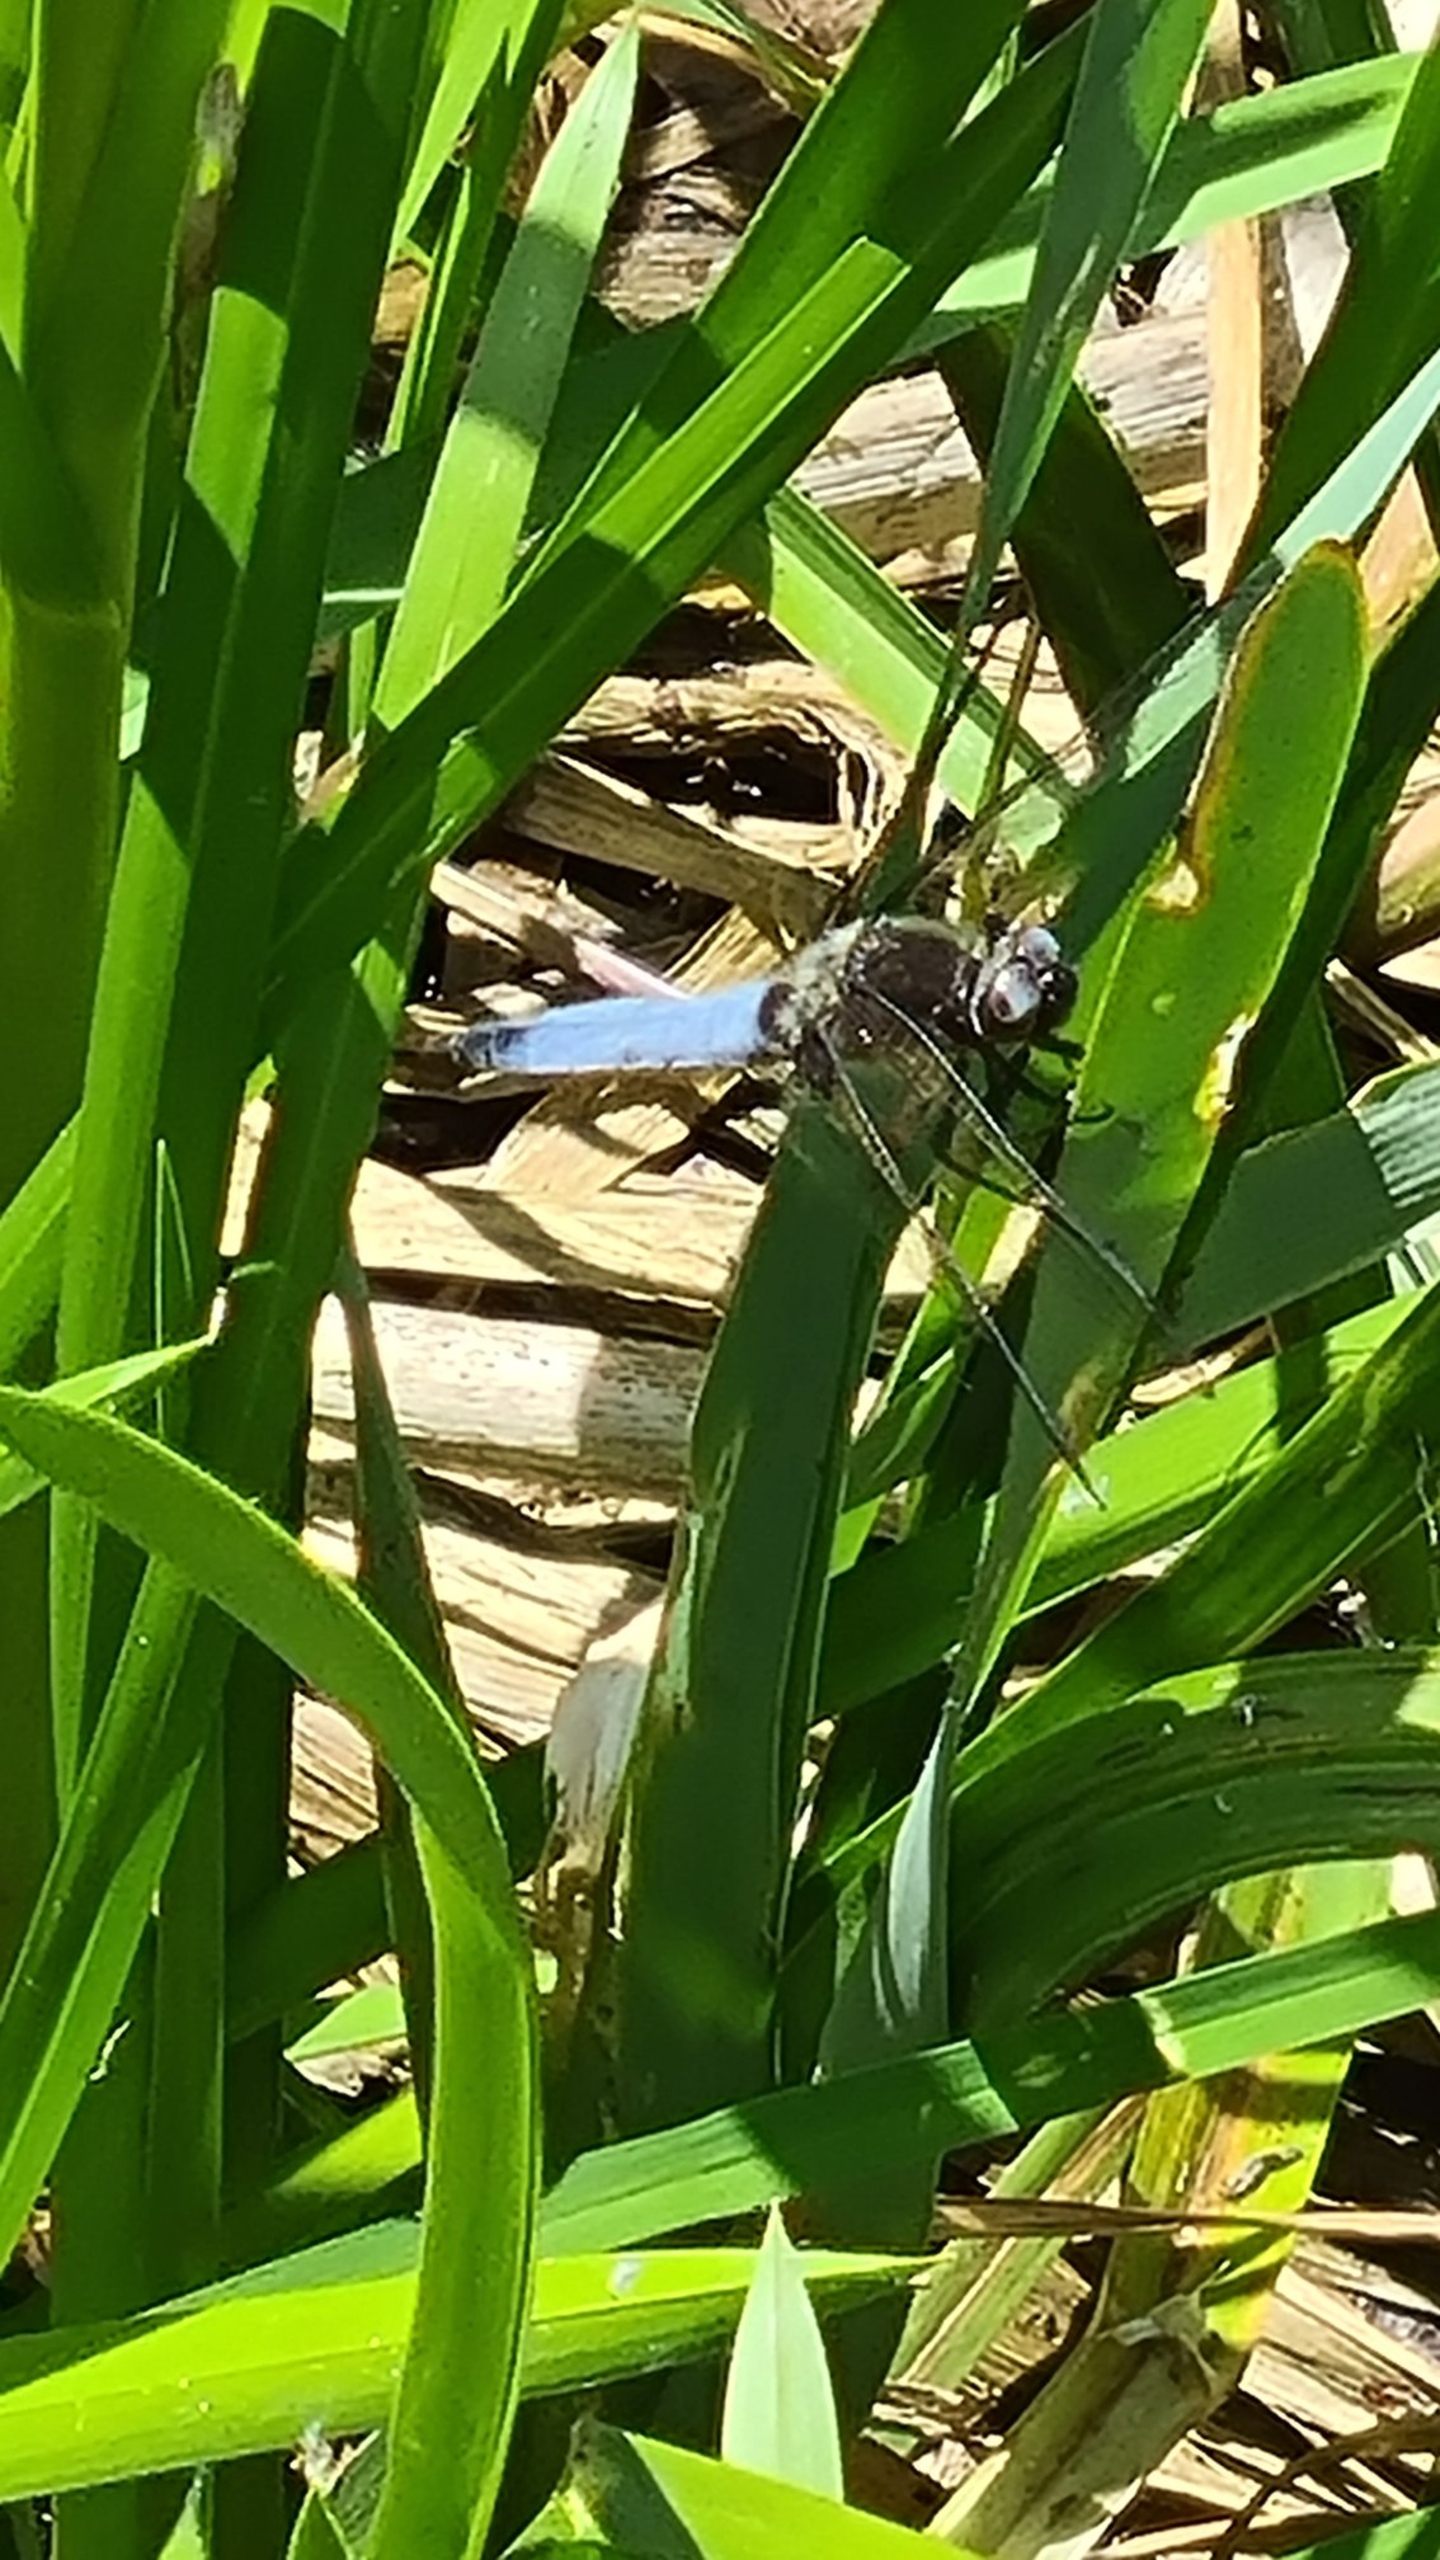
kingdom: Animalia
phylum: Arthropoda
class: Insecta
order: Odonata
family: Libellulidae
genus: Libellula
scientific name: Libellula fulva
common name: Spidsplettet libel
